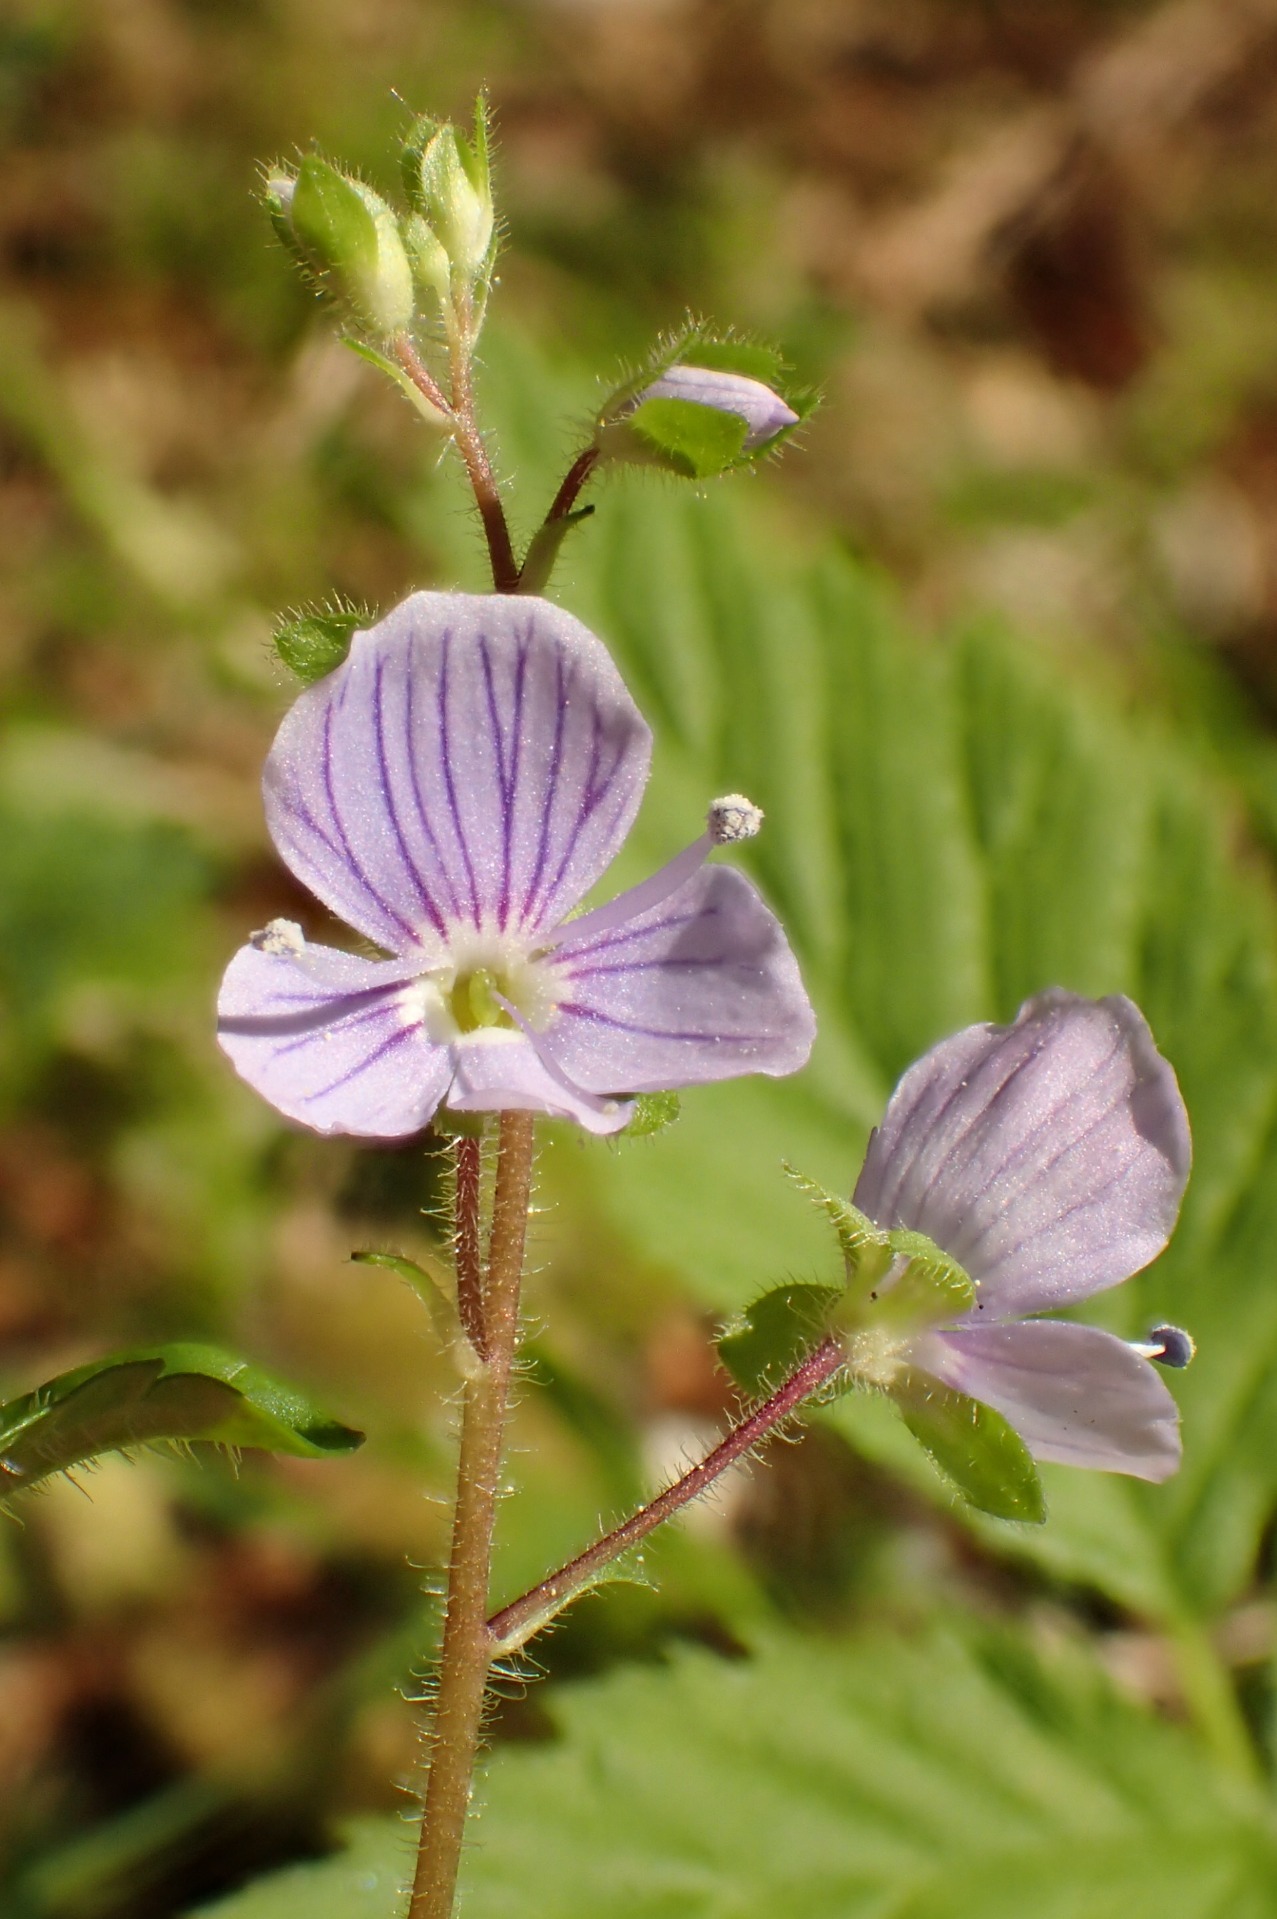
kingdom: Plantae
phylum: Tracheophyta
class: Magnoliopsida
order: Lamiales
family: Plantaginaceae
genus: Veronica
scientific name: Veronica montana
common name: Bjerg-ærenpris
